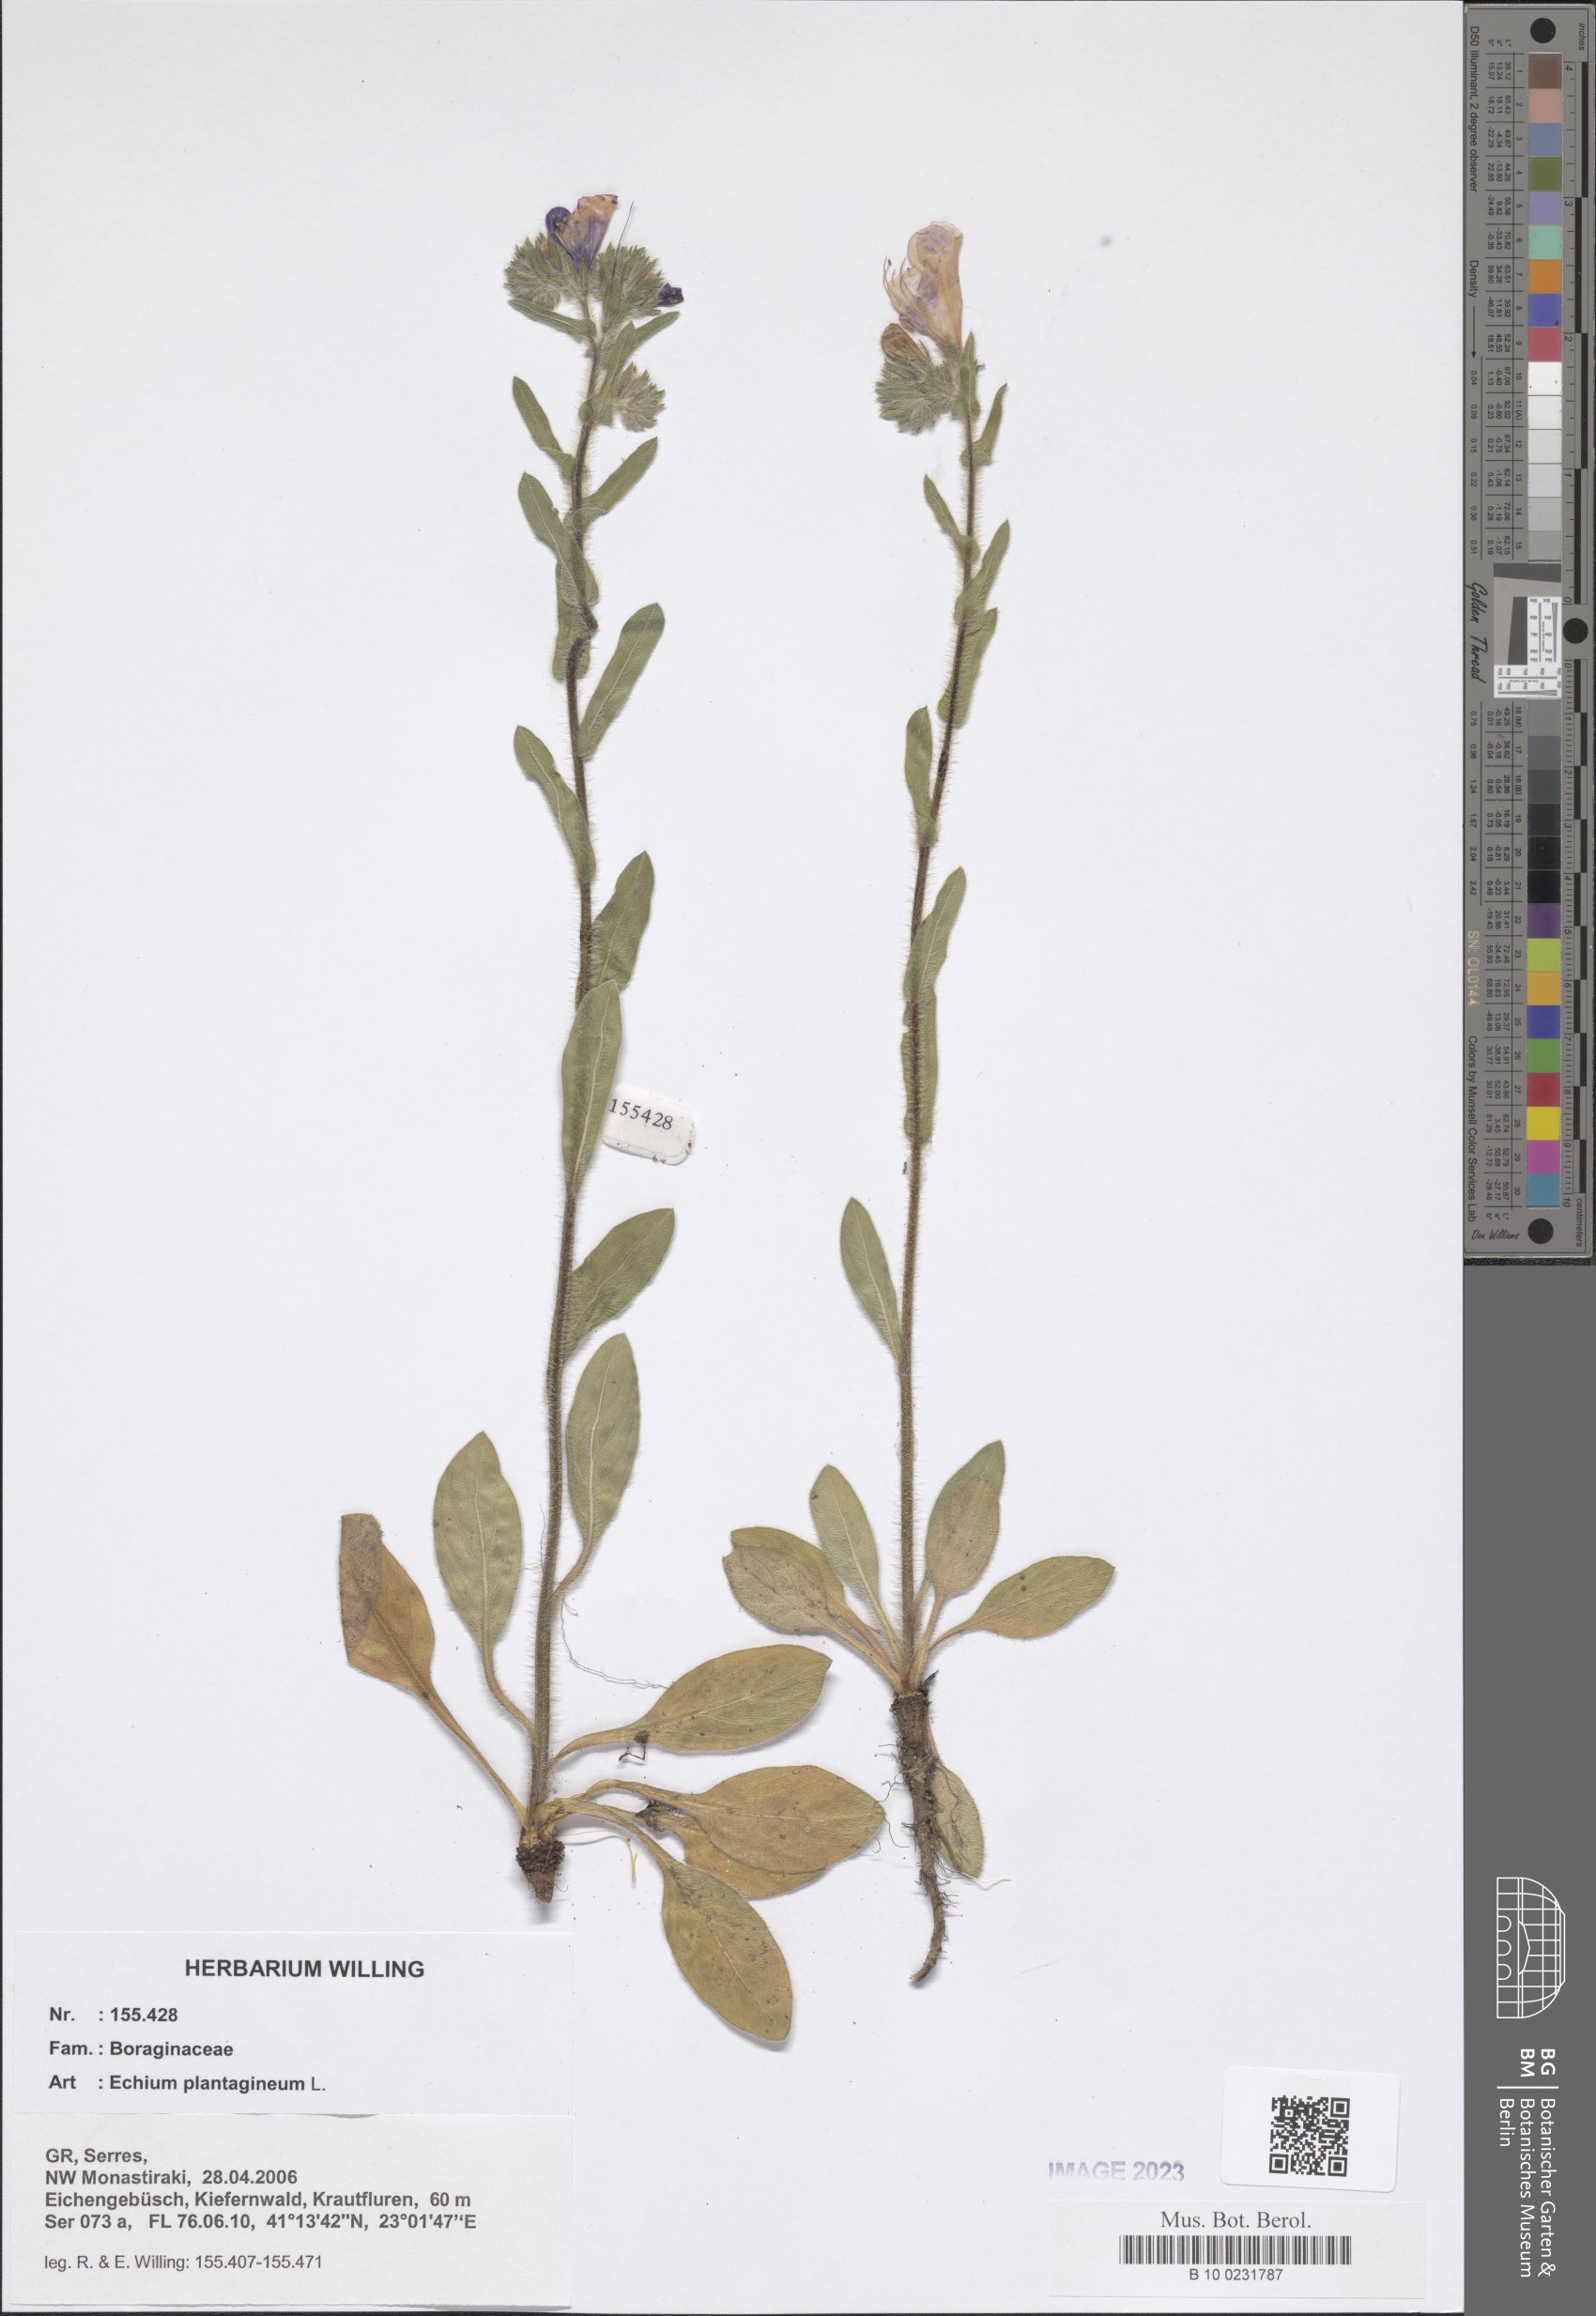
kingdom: Plantae
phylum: Tracheophyta
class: Magnoliopsida
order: Boraginales
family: Boraginaceae
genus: Echium
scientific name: Echium plantagineum
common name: Purple viper's-bugloss
